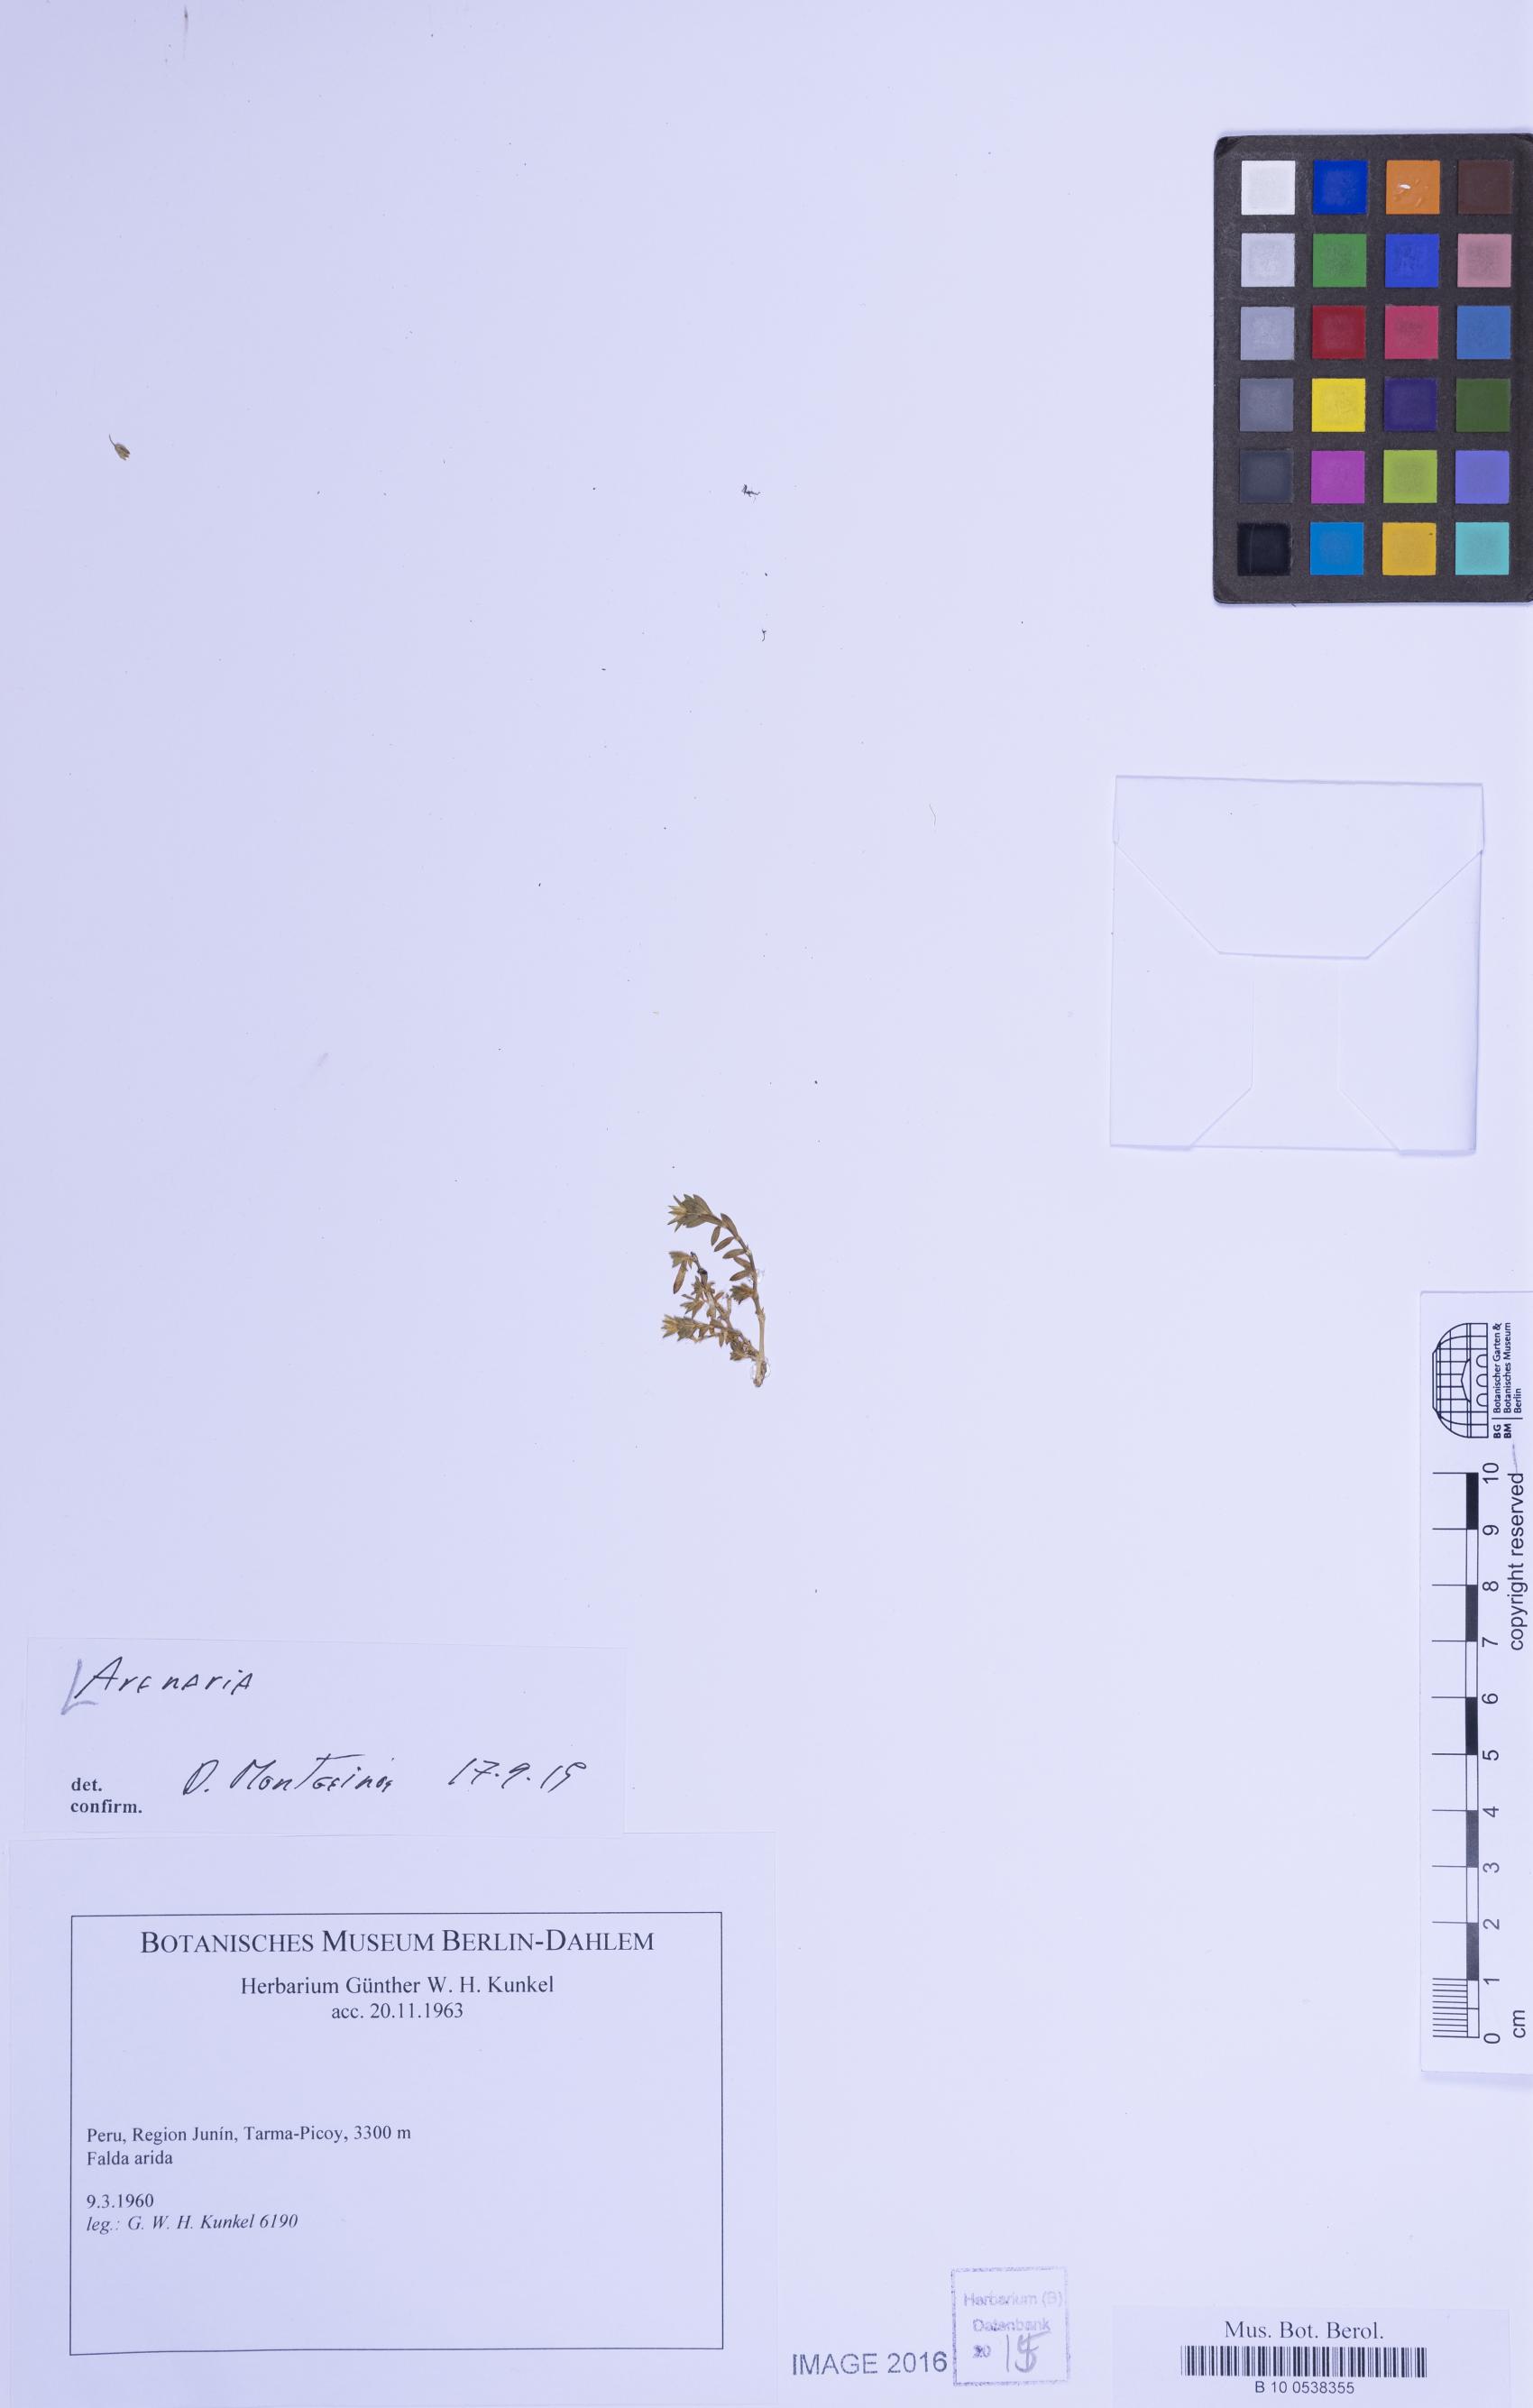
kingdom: Plantae
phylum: Tracheophyta
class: Magnoliopsida
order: Caryophyllales
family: Caryophyllaceae
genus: Arenaria
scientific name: Arenaria
